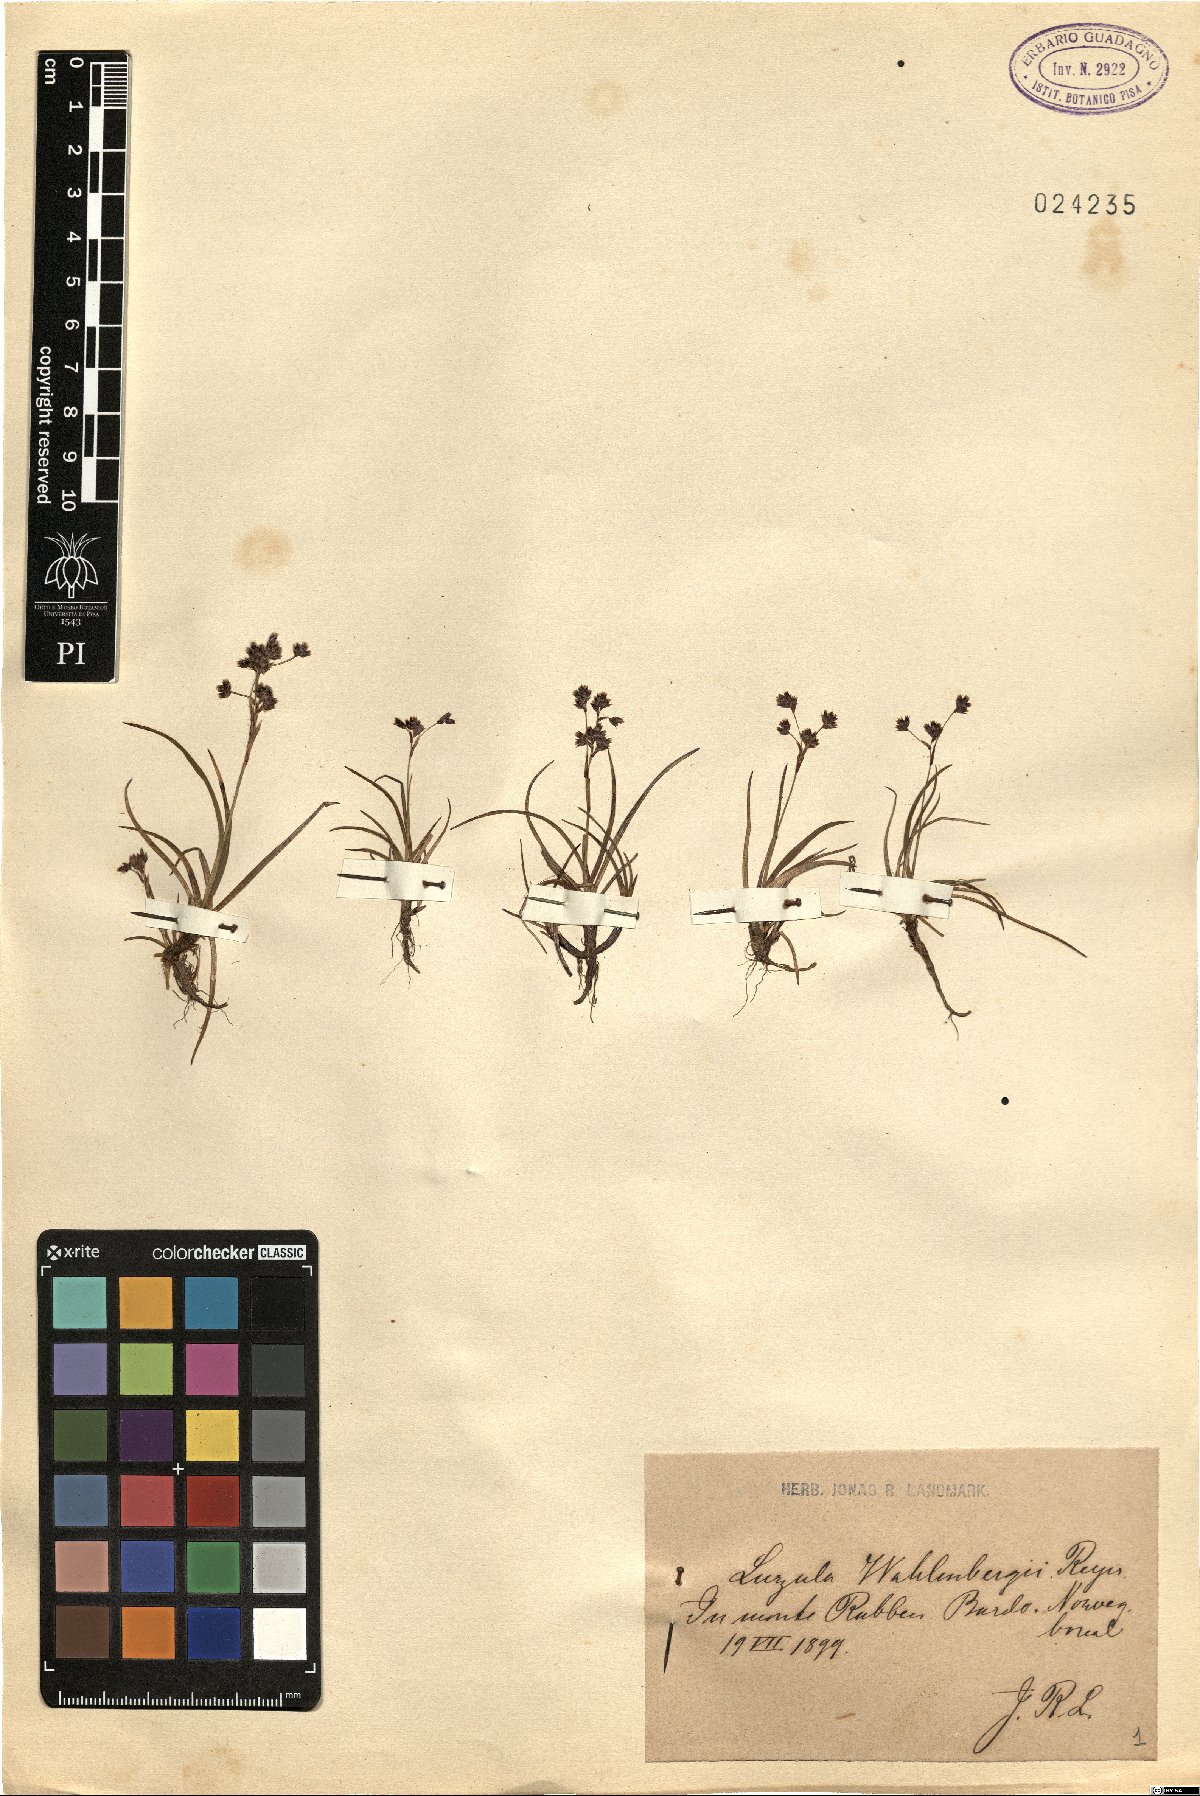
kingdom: Plantae
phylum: Tracheophyta
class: Liliopsida
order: Poales
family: Juncaceae
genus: Luzula
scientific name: Luzula wahlenbergii
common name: Wahlenberg's wood-rush
